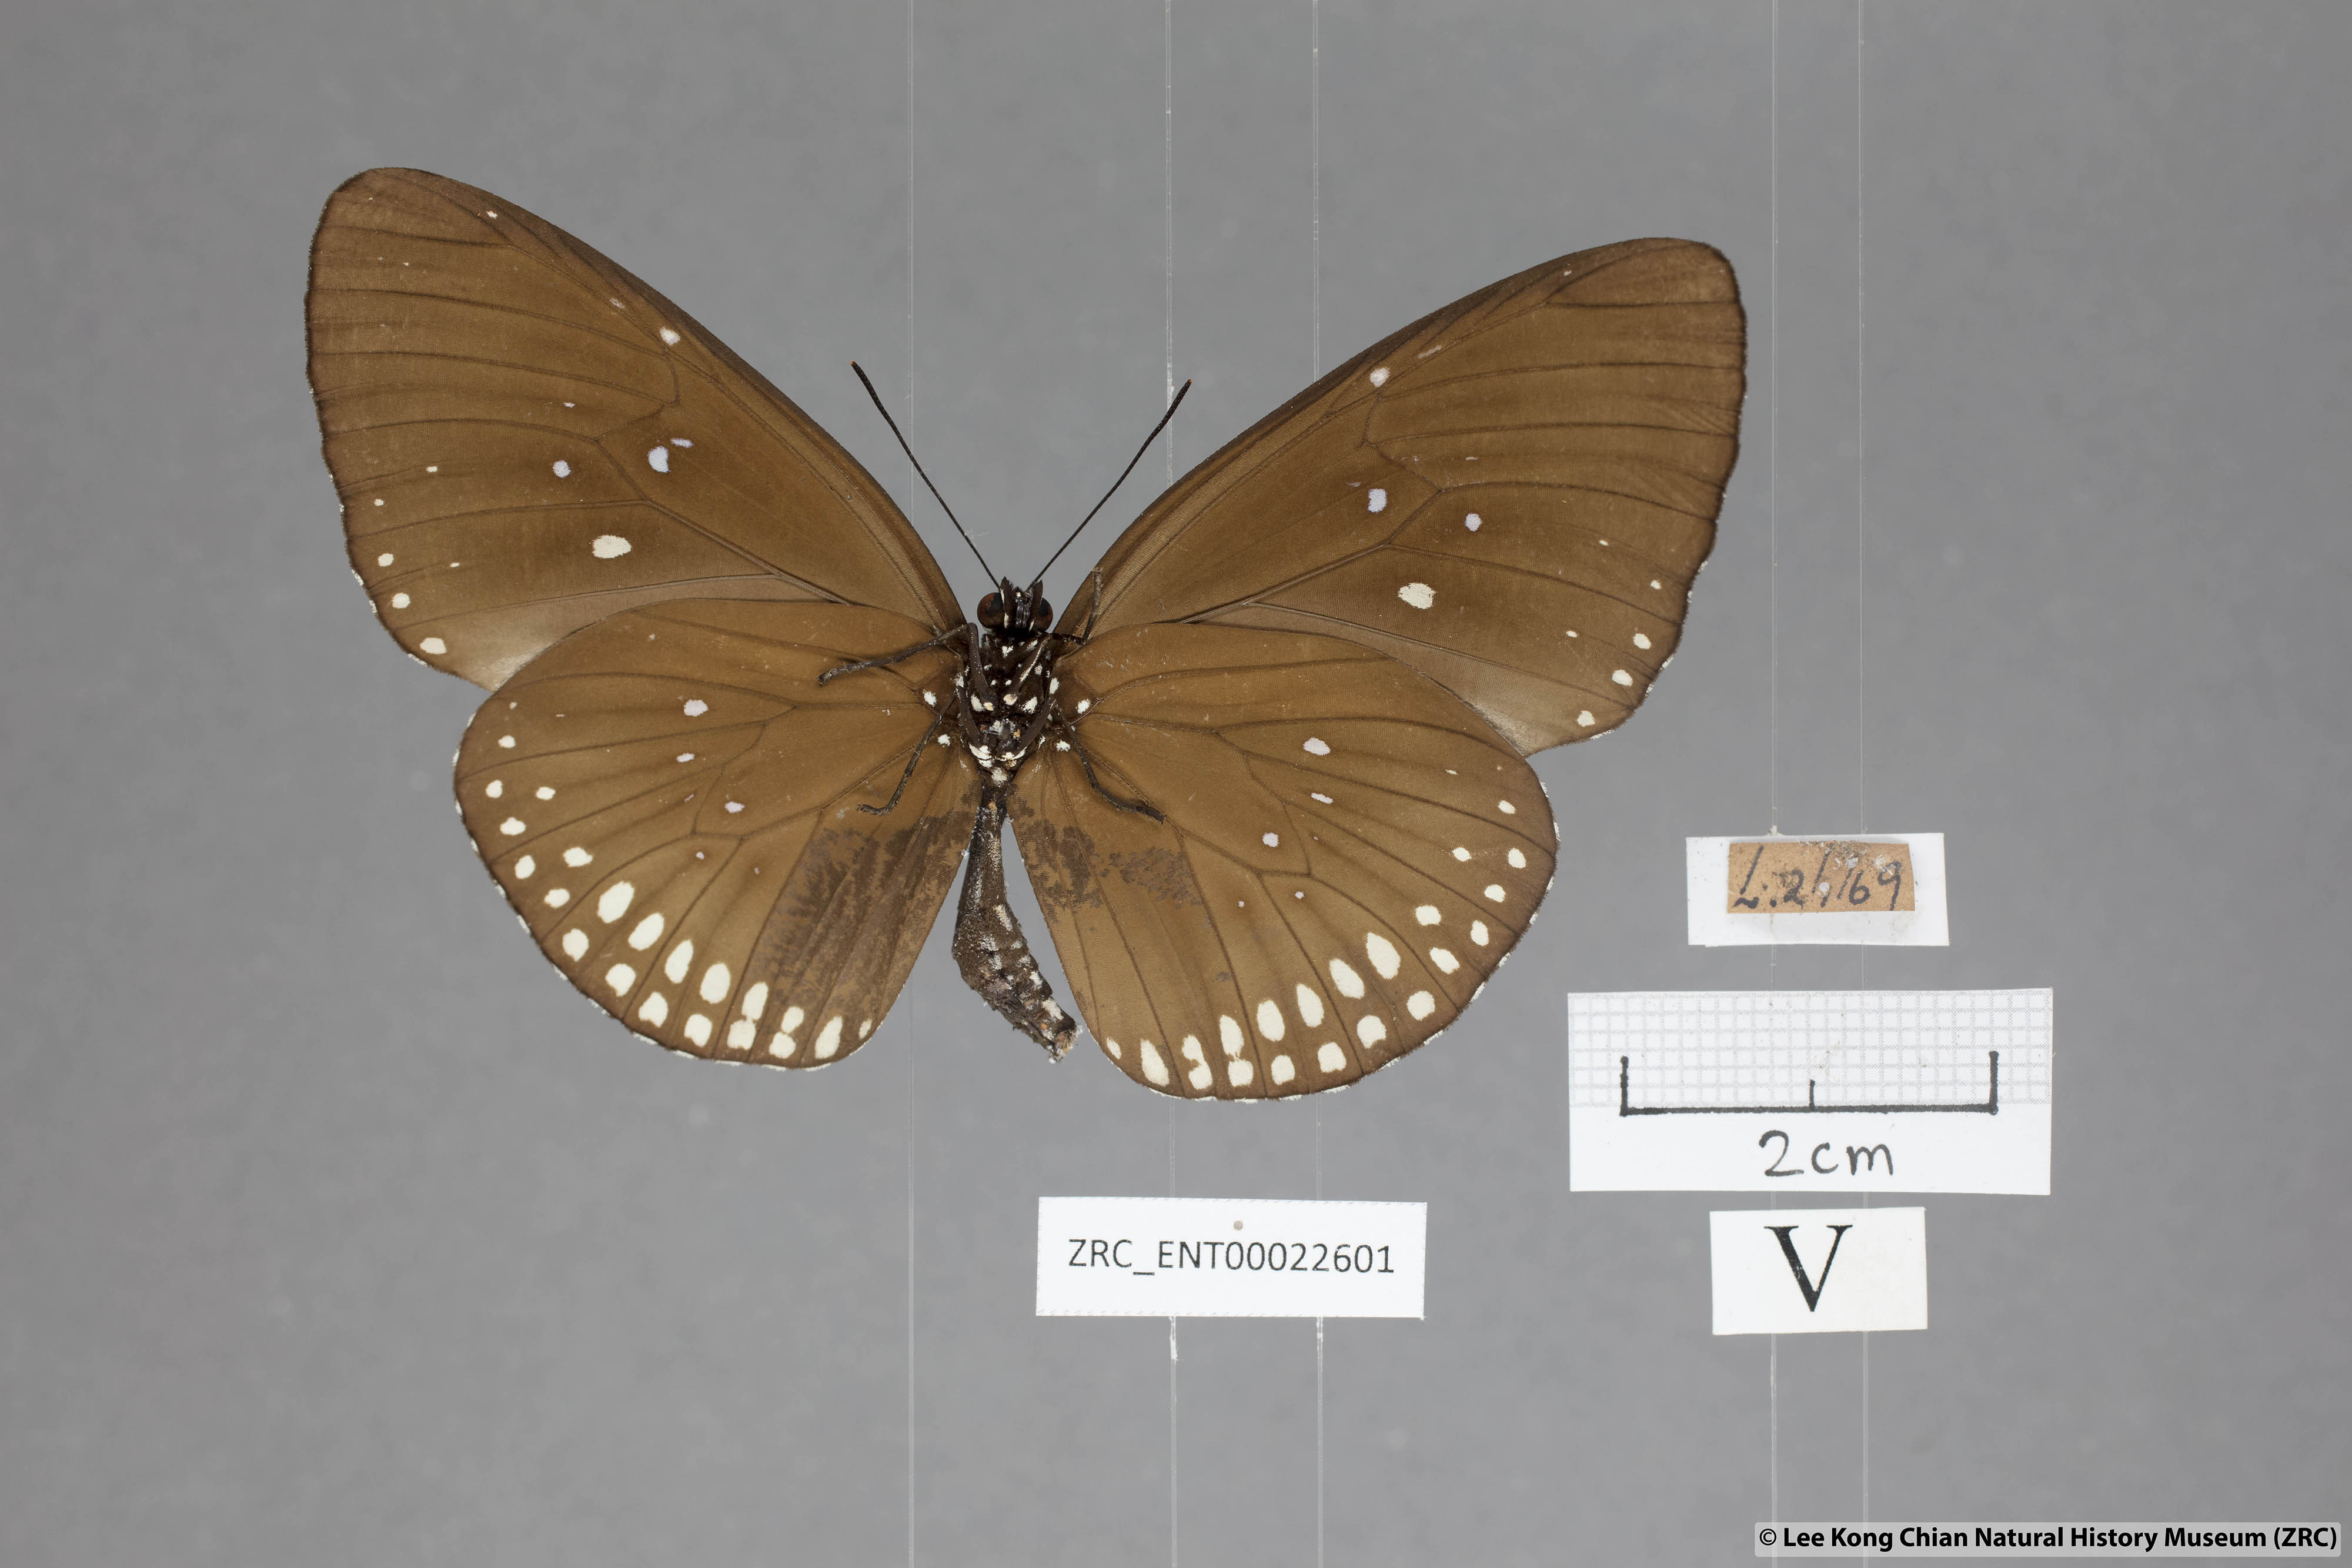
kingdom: Animalia
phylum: Arthropoda
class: Insecta
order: Lepidoptera
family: Nymphalidae
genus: Euploea
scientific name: Euploea modesta
